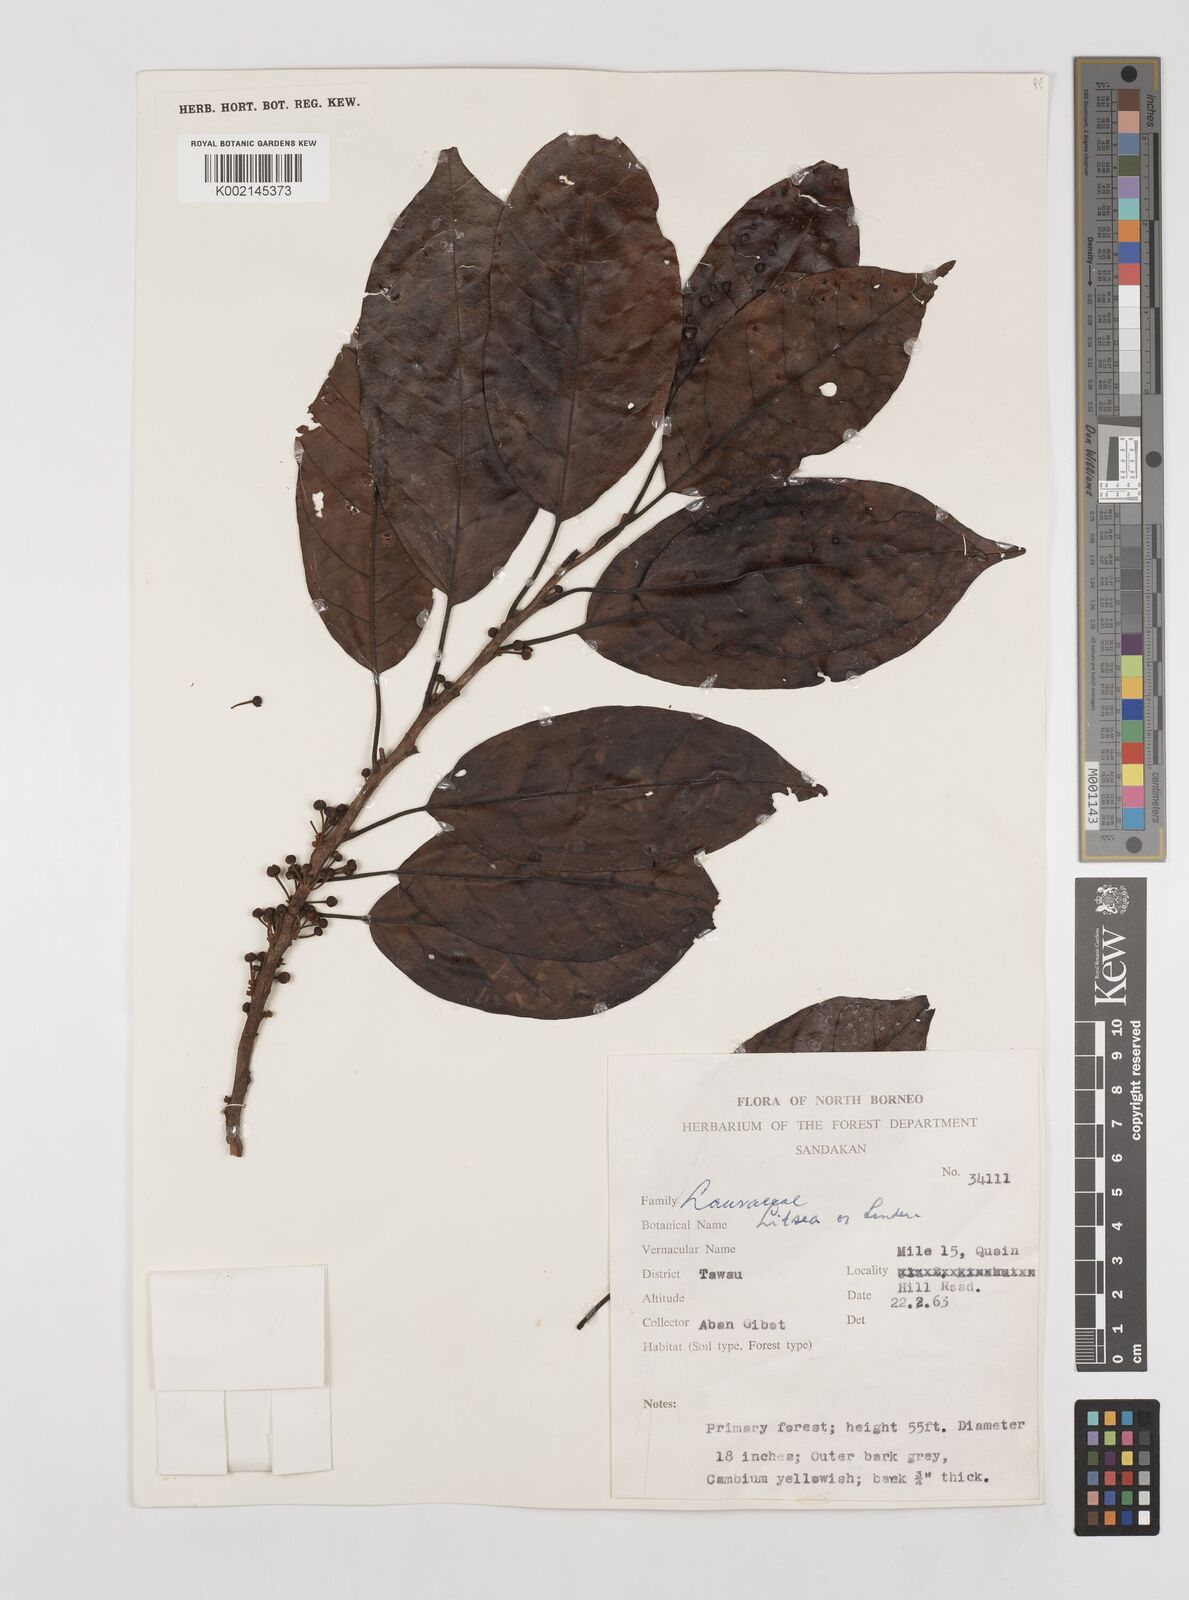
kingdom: Plantae
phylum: Tracheophyta
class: Magnoliopsida
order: Laurales
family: Lauraceae
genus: Litsea
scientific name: Litsea
